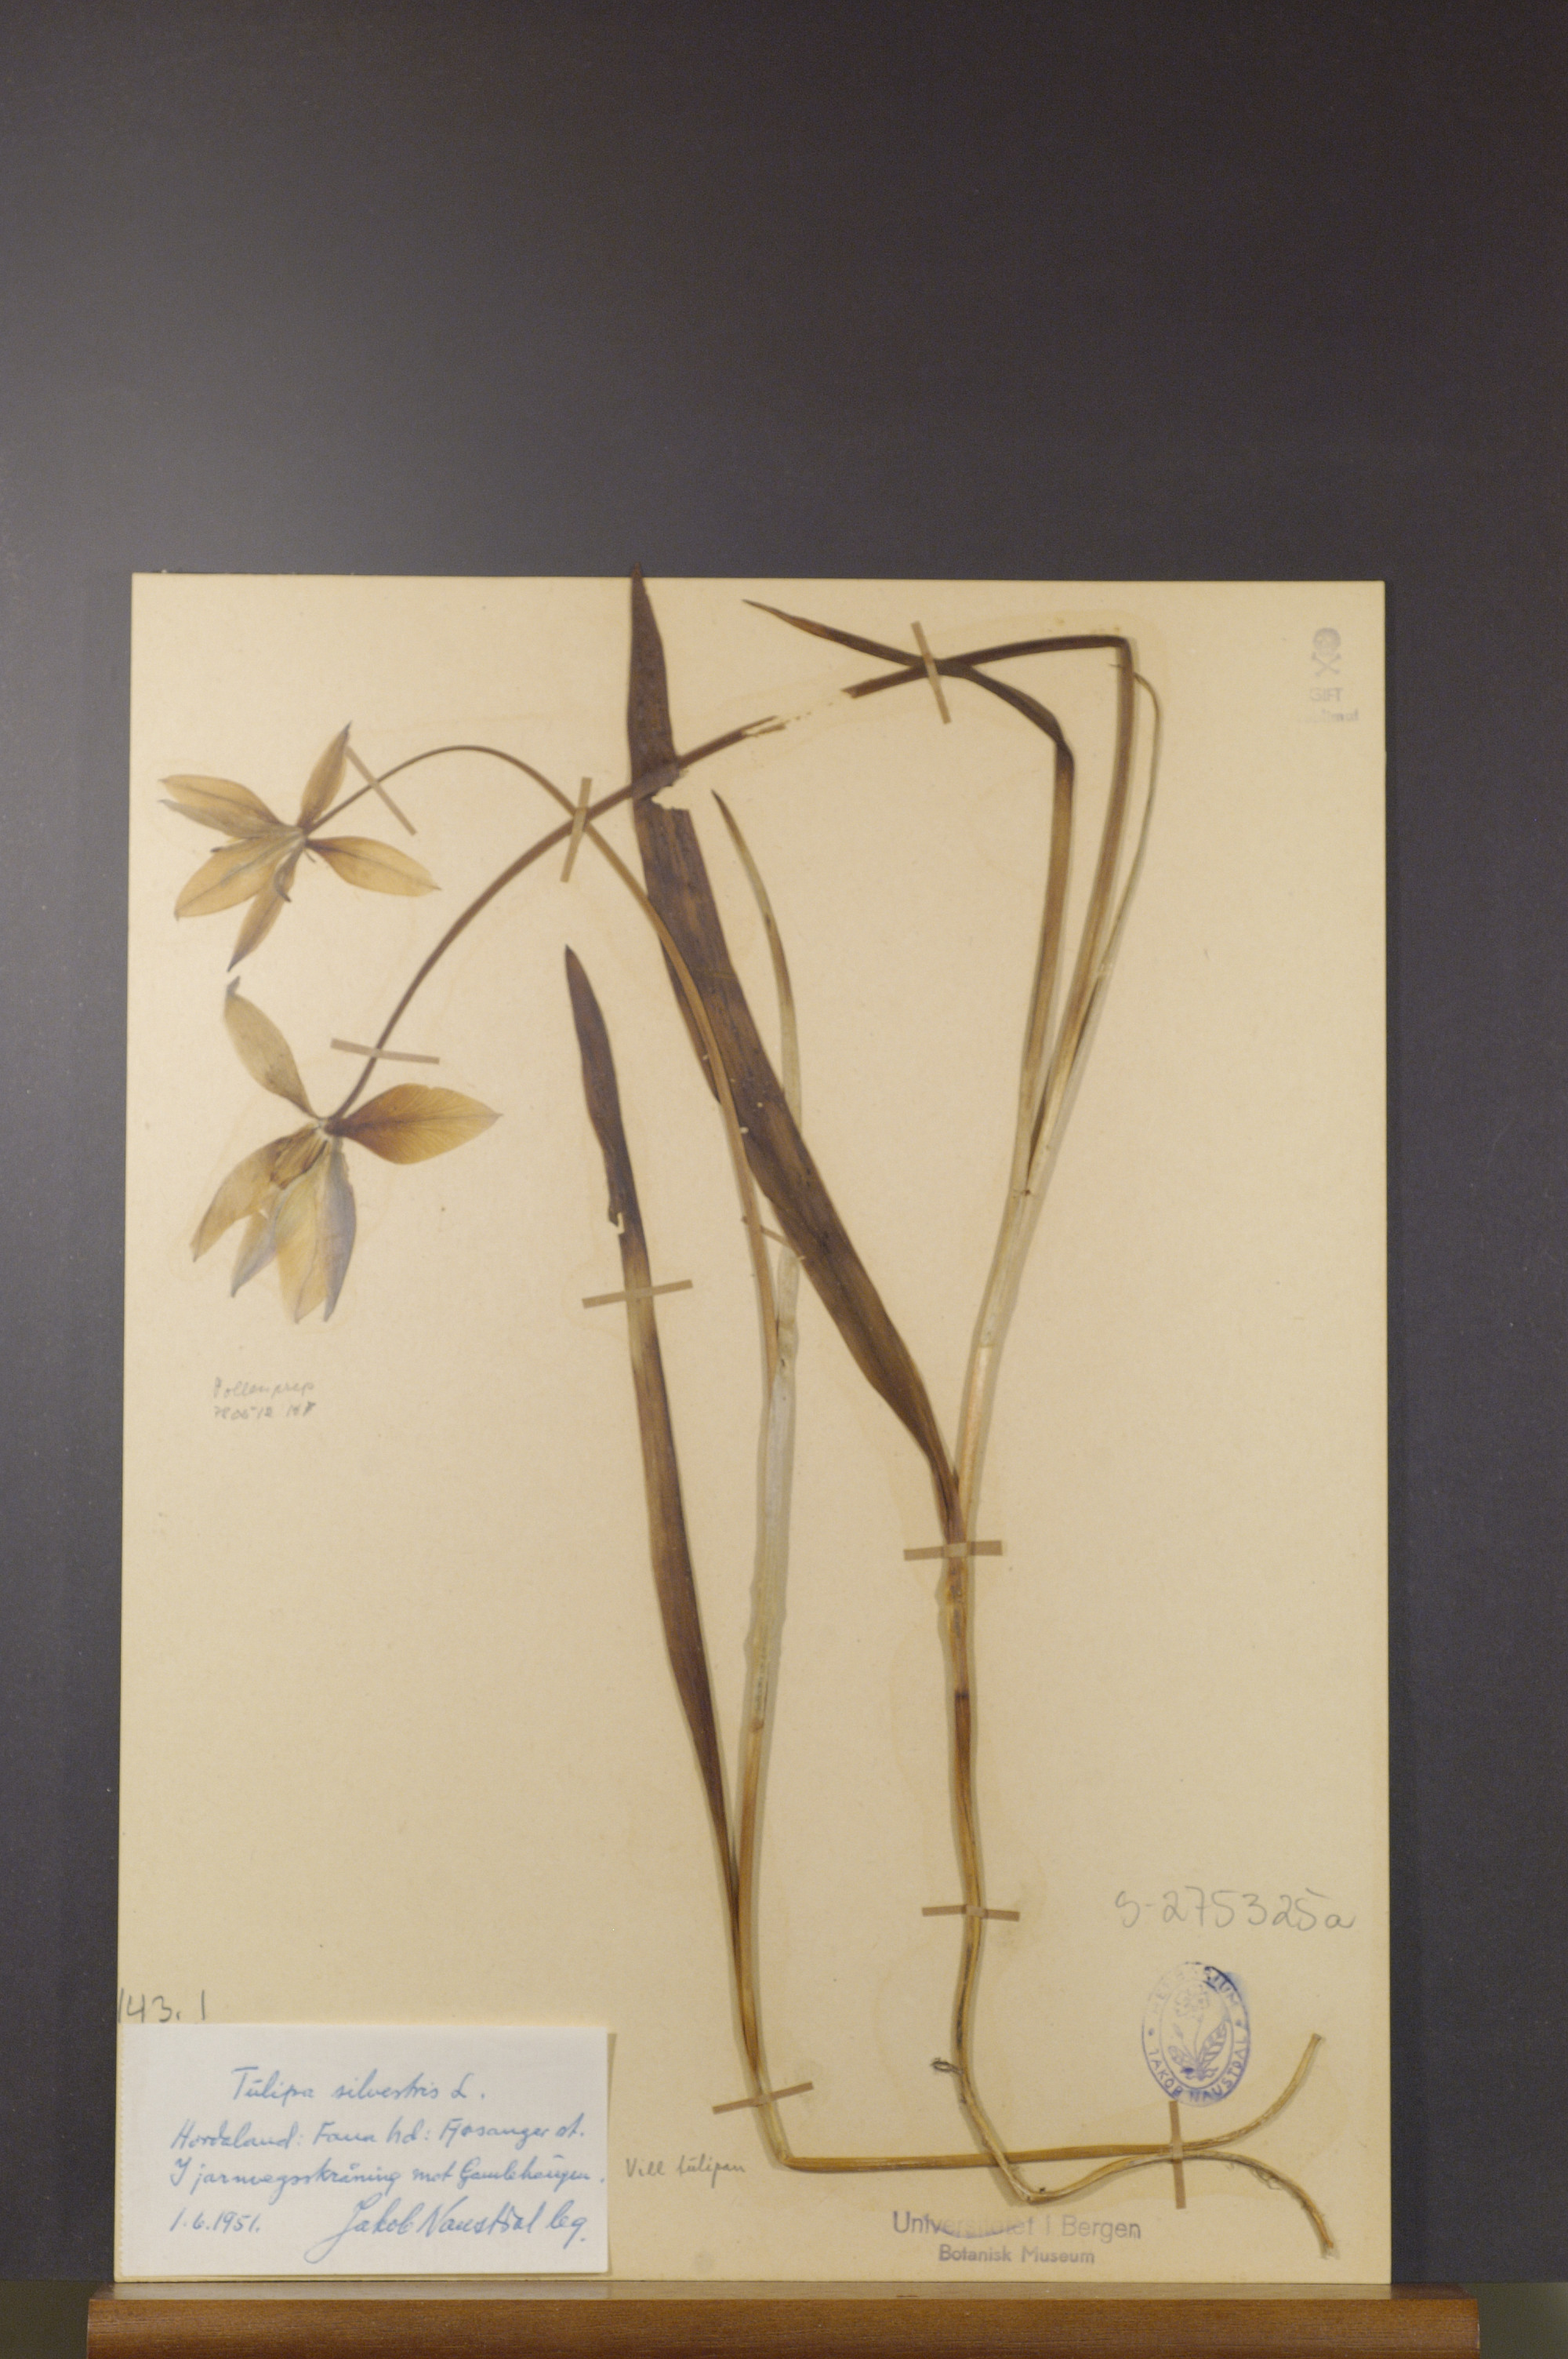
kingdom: Plantae
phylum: Tracheophyta
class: Liliopsida
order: Liliales
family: Liliaceae
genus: Tulipa
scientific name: Tulipa sylvestris
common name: Wild tulip
